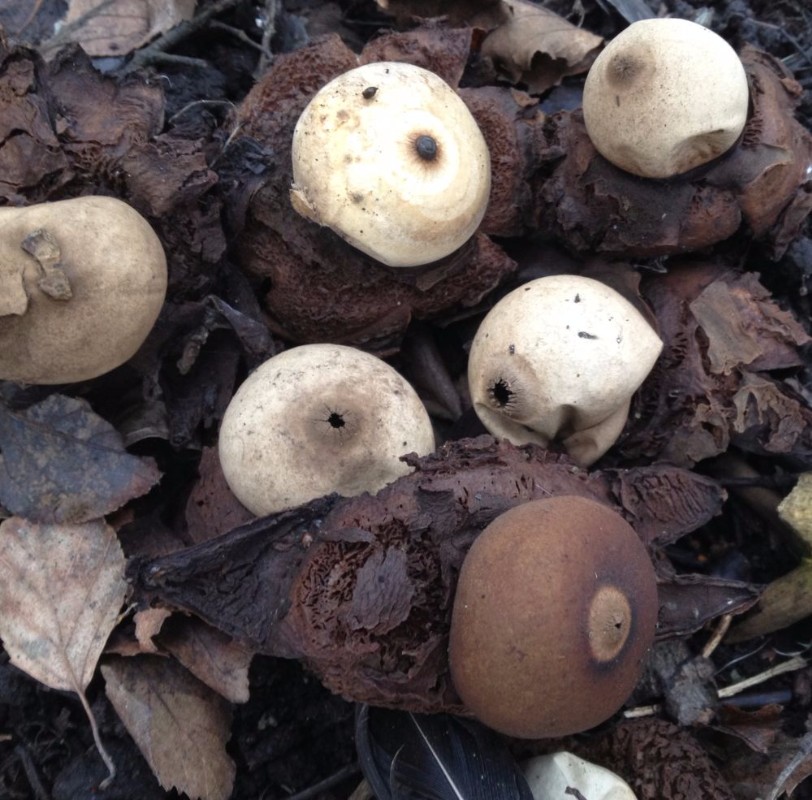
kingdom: Fungi
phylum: Basidiomycota
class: Agaricomycetes
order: Geastrales
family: Geastraceae
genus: Geastrum
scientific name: Geastrum michelianum
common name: kødet stjernebold
